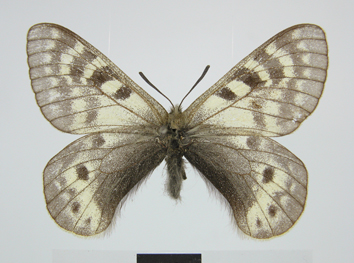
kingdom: Animalia
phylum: Arthropoda
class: Insecta
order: Lepidoptera
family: Papilionidae
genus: Parnassius
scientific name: Parnassius staudingeri
